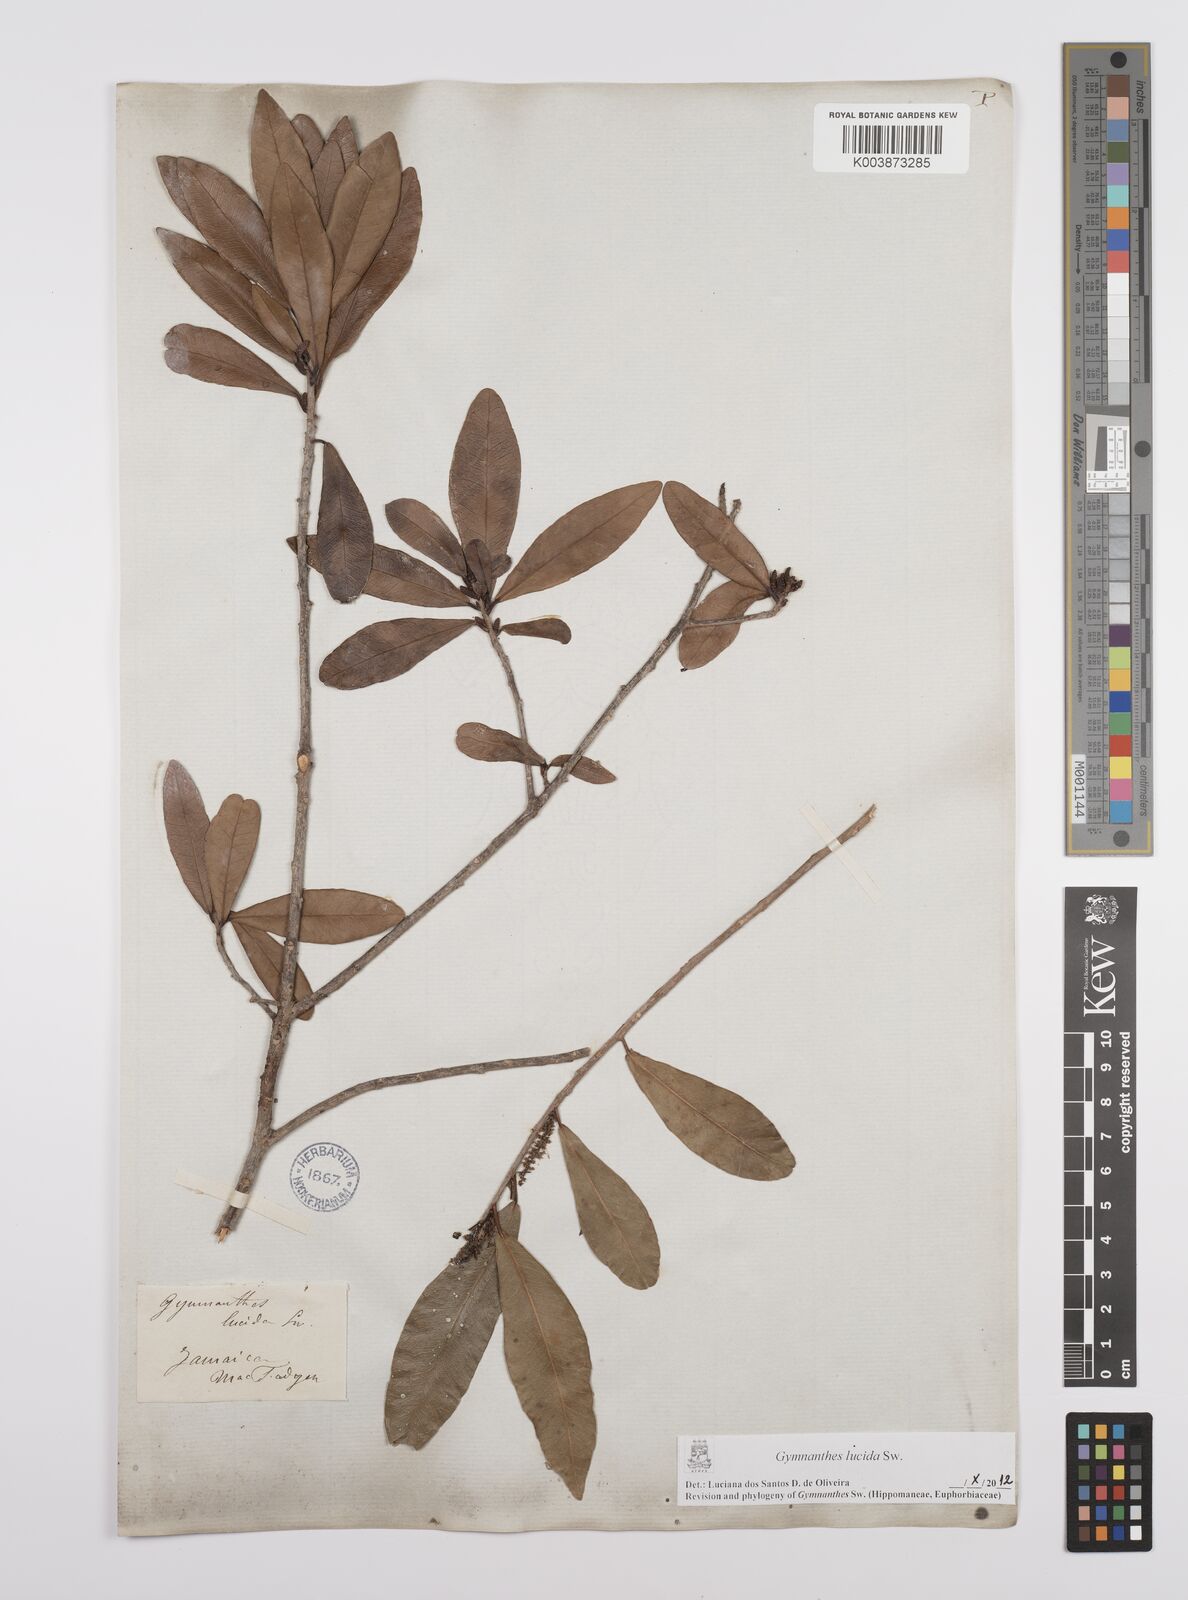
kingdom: Plantae
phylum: Tracheophyta
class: Magnoliopsida
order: Malpighiales
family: Euphorbiaceae
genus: Gymnanthes
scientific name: Gymnanthes lucida
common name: Oysterwood
